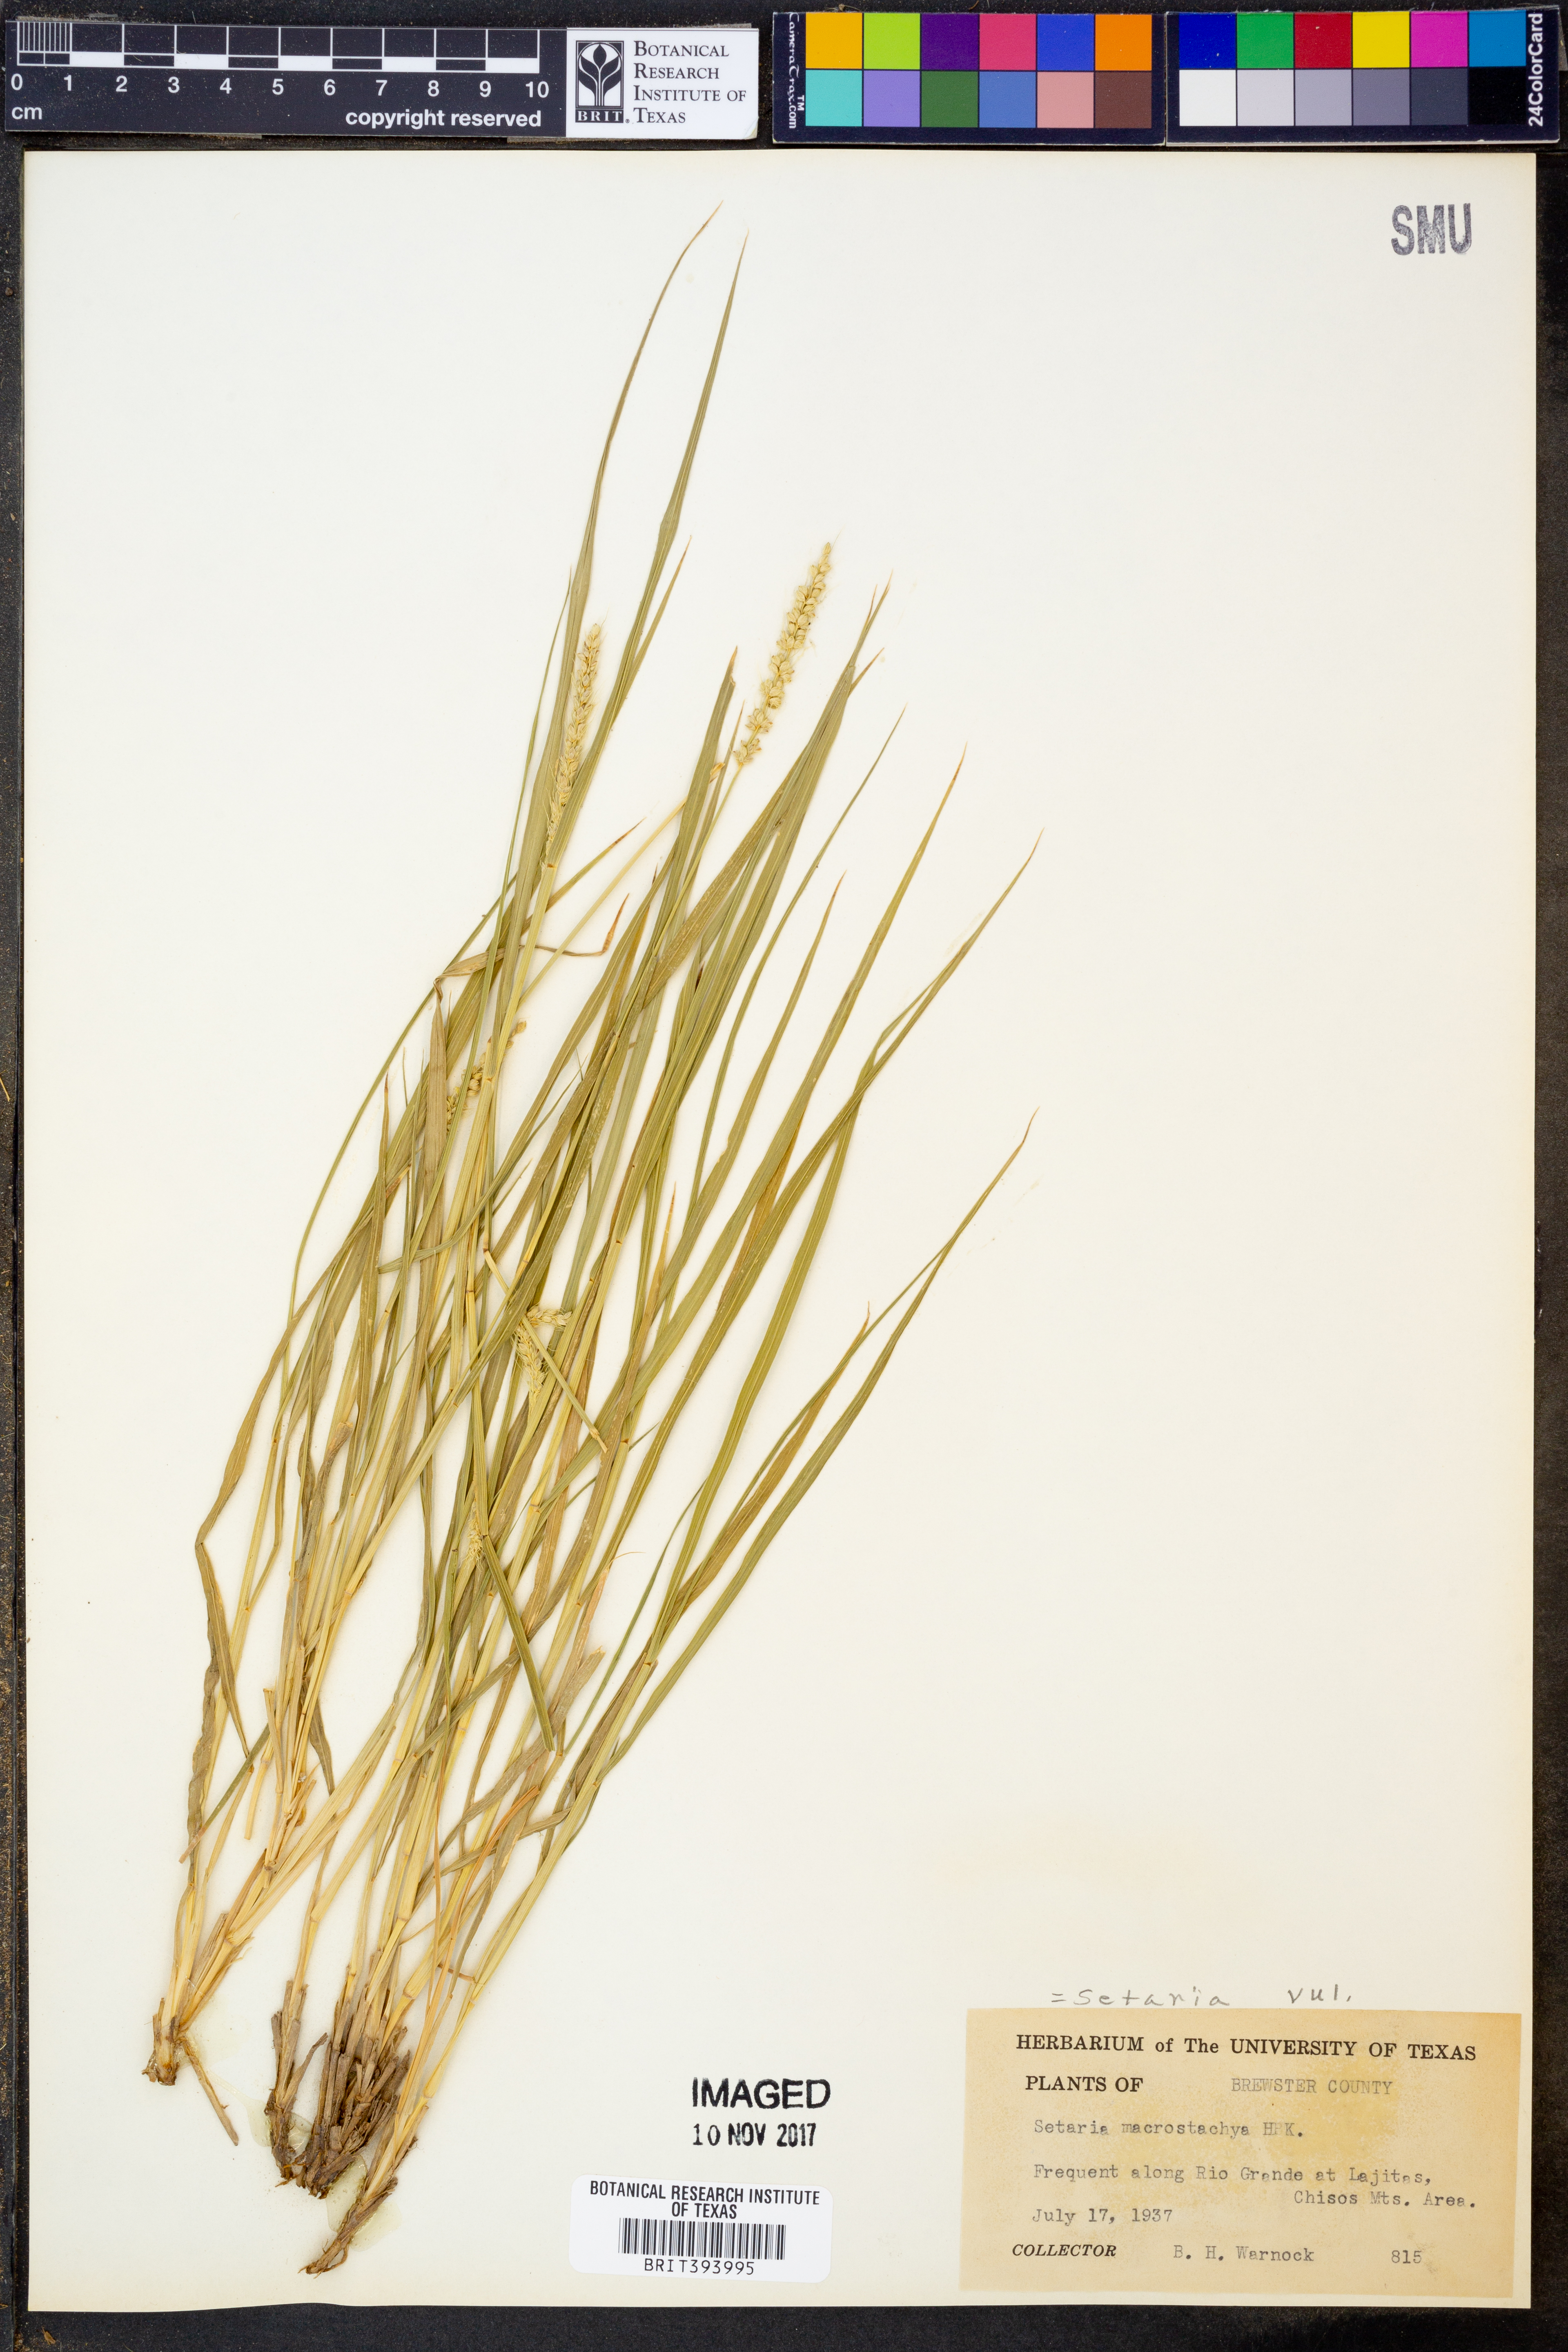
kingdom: Plantae
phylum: Tracheophyta
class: Liliopsida
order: Poales
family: Poaceae
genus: Setaria
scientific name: Setaria macrostachya
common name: Plains bristle grass
